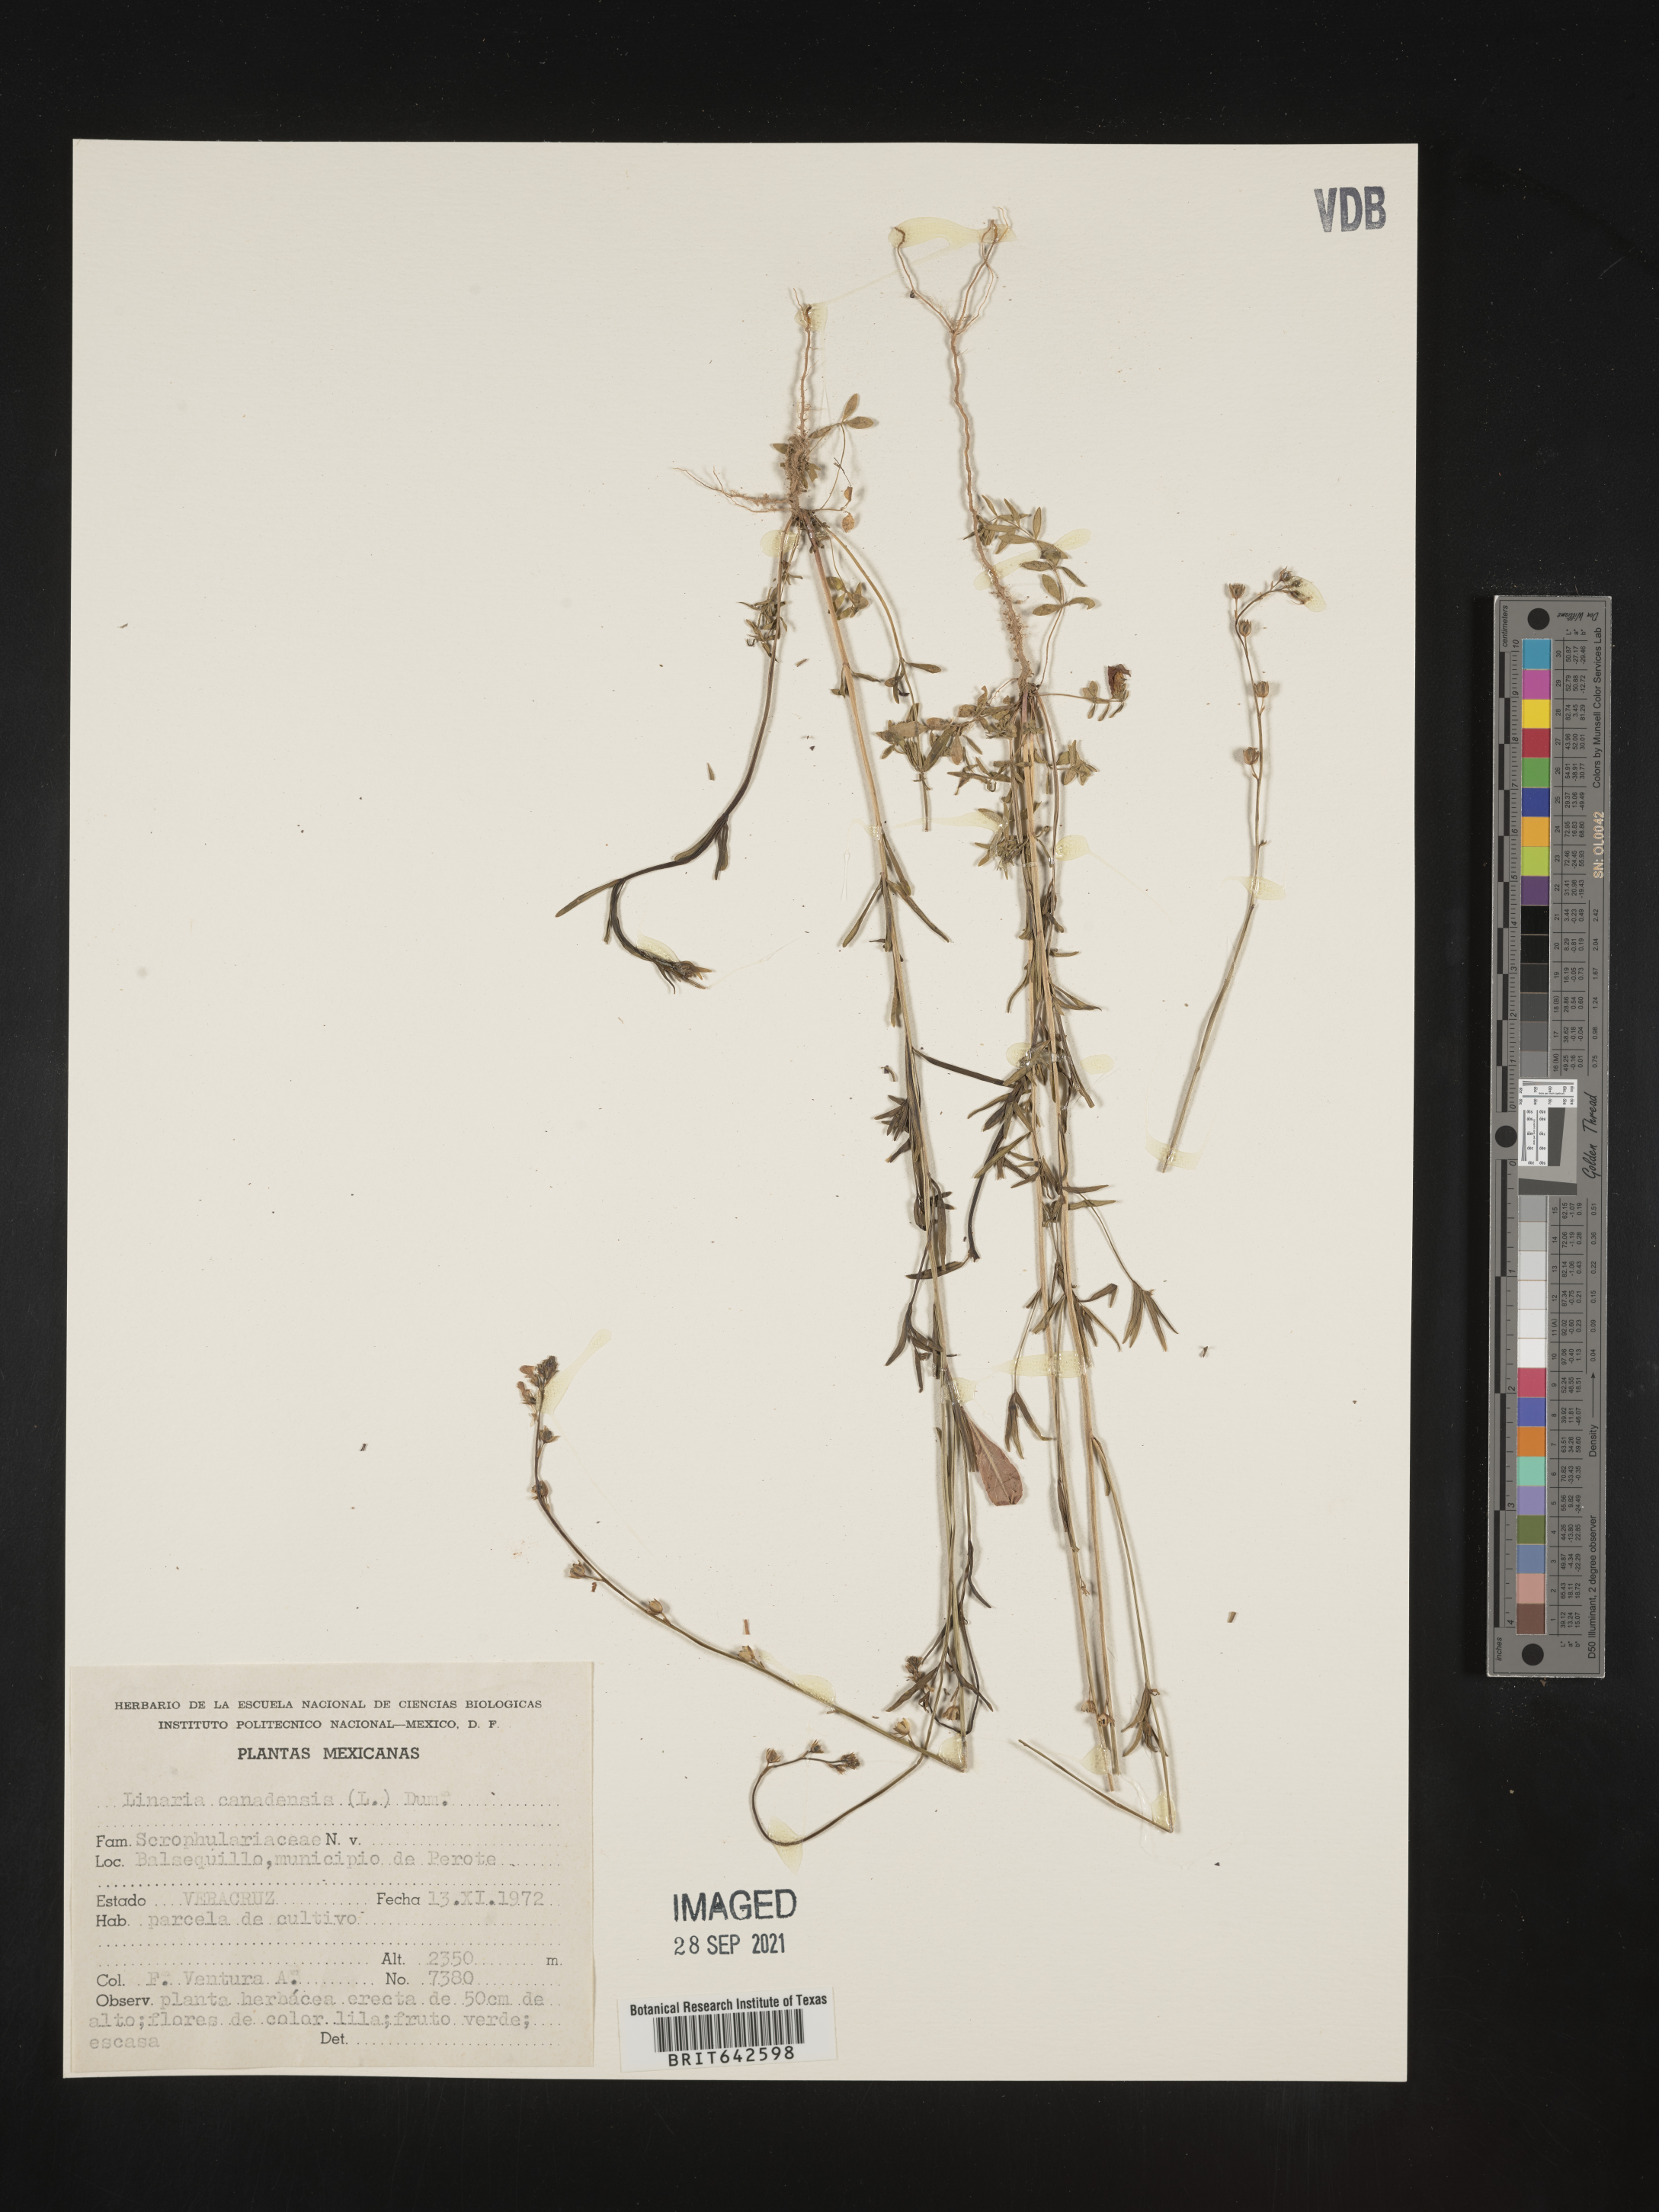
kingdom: Plantae
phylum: Tracheophyta
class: Magnoliopsida
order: Lamiales
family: Orobanchaceae
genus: Lamourouxia
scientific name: Lamourouxia
